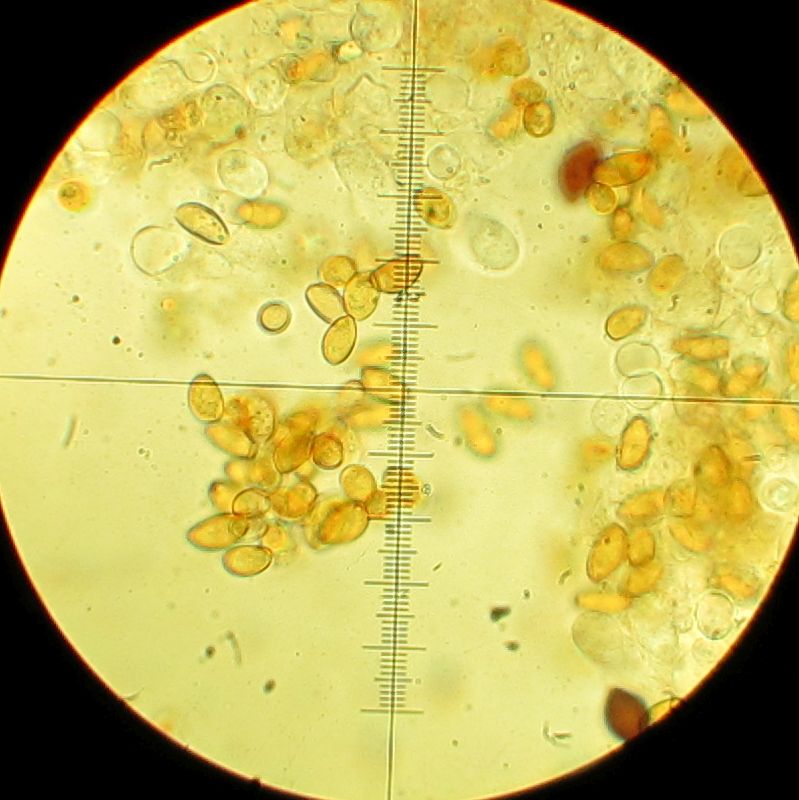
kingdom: Fungi
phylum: Basidiomycota
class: Agaricomycetes
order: Agaricales
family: Bolbitiaceae
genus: Conocybe
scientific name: Conocybe
